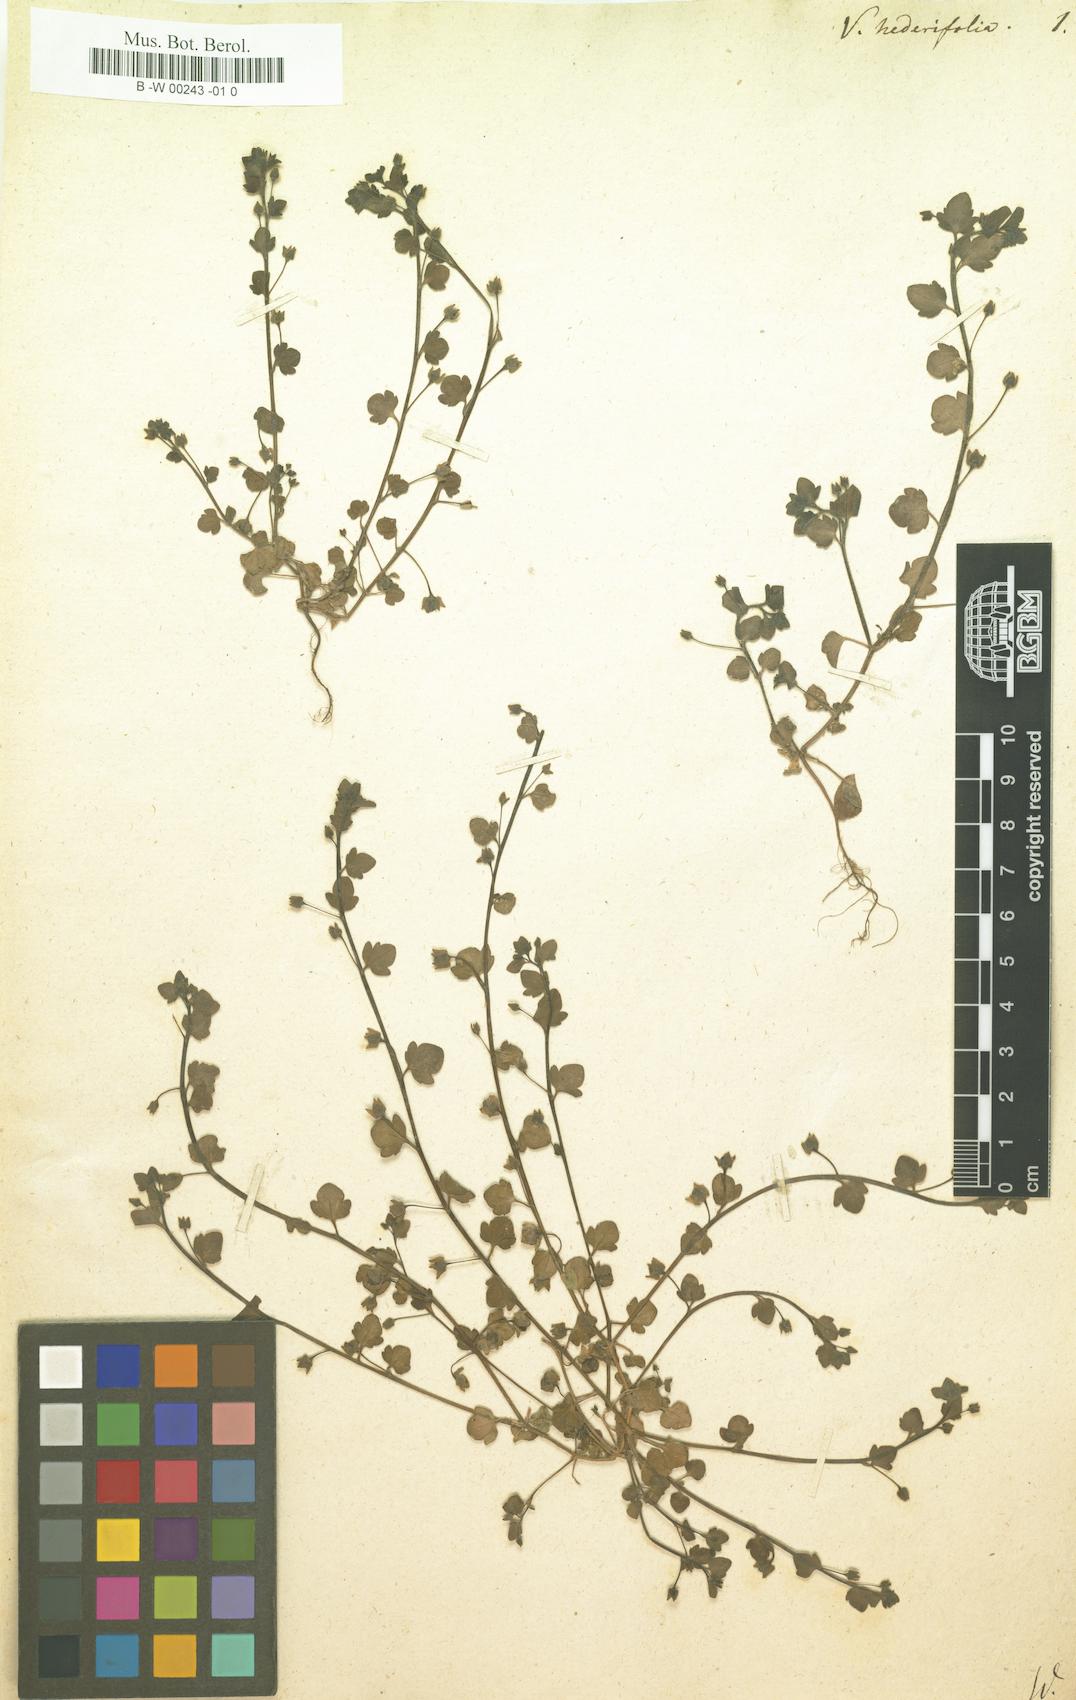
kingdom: Plantae
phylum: Tracheophyta
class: Magnoliopsida
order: Lamiales
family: Plantaginaceae
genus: Veronica
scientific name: Veronica hederifolia
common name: Ivy-leaved speedwell
